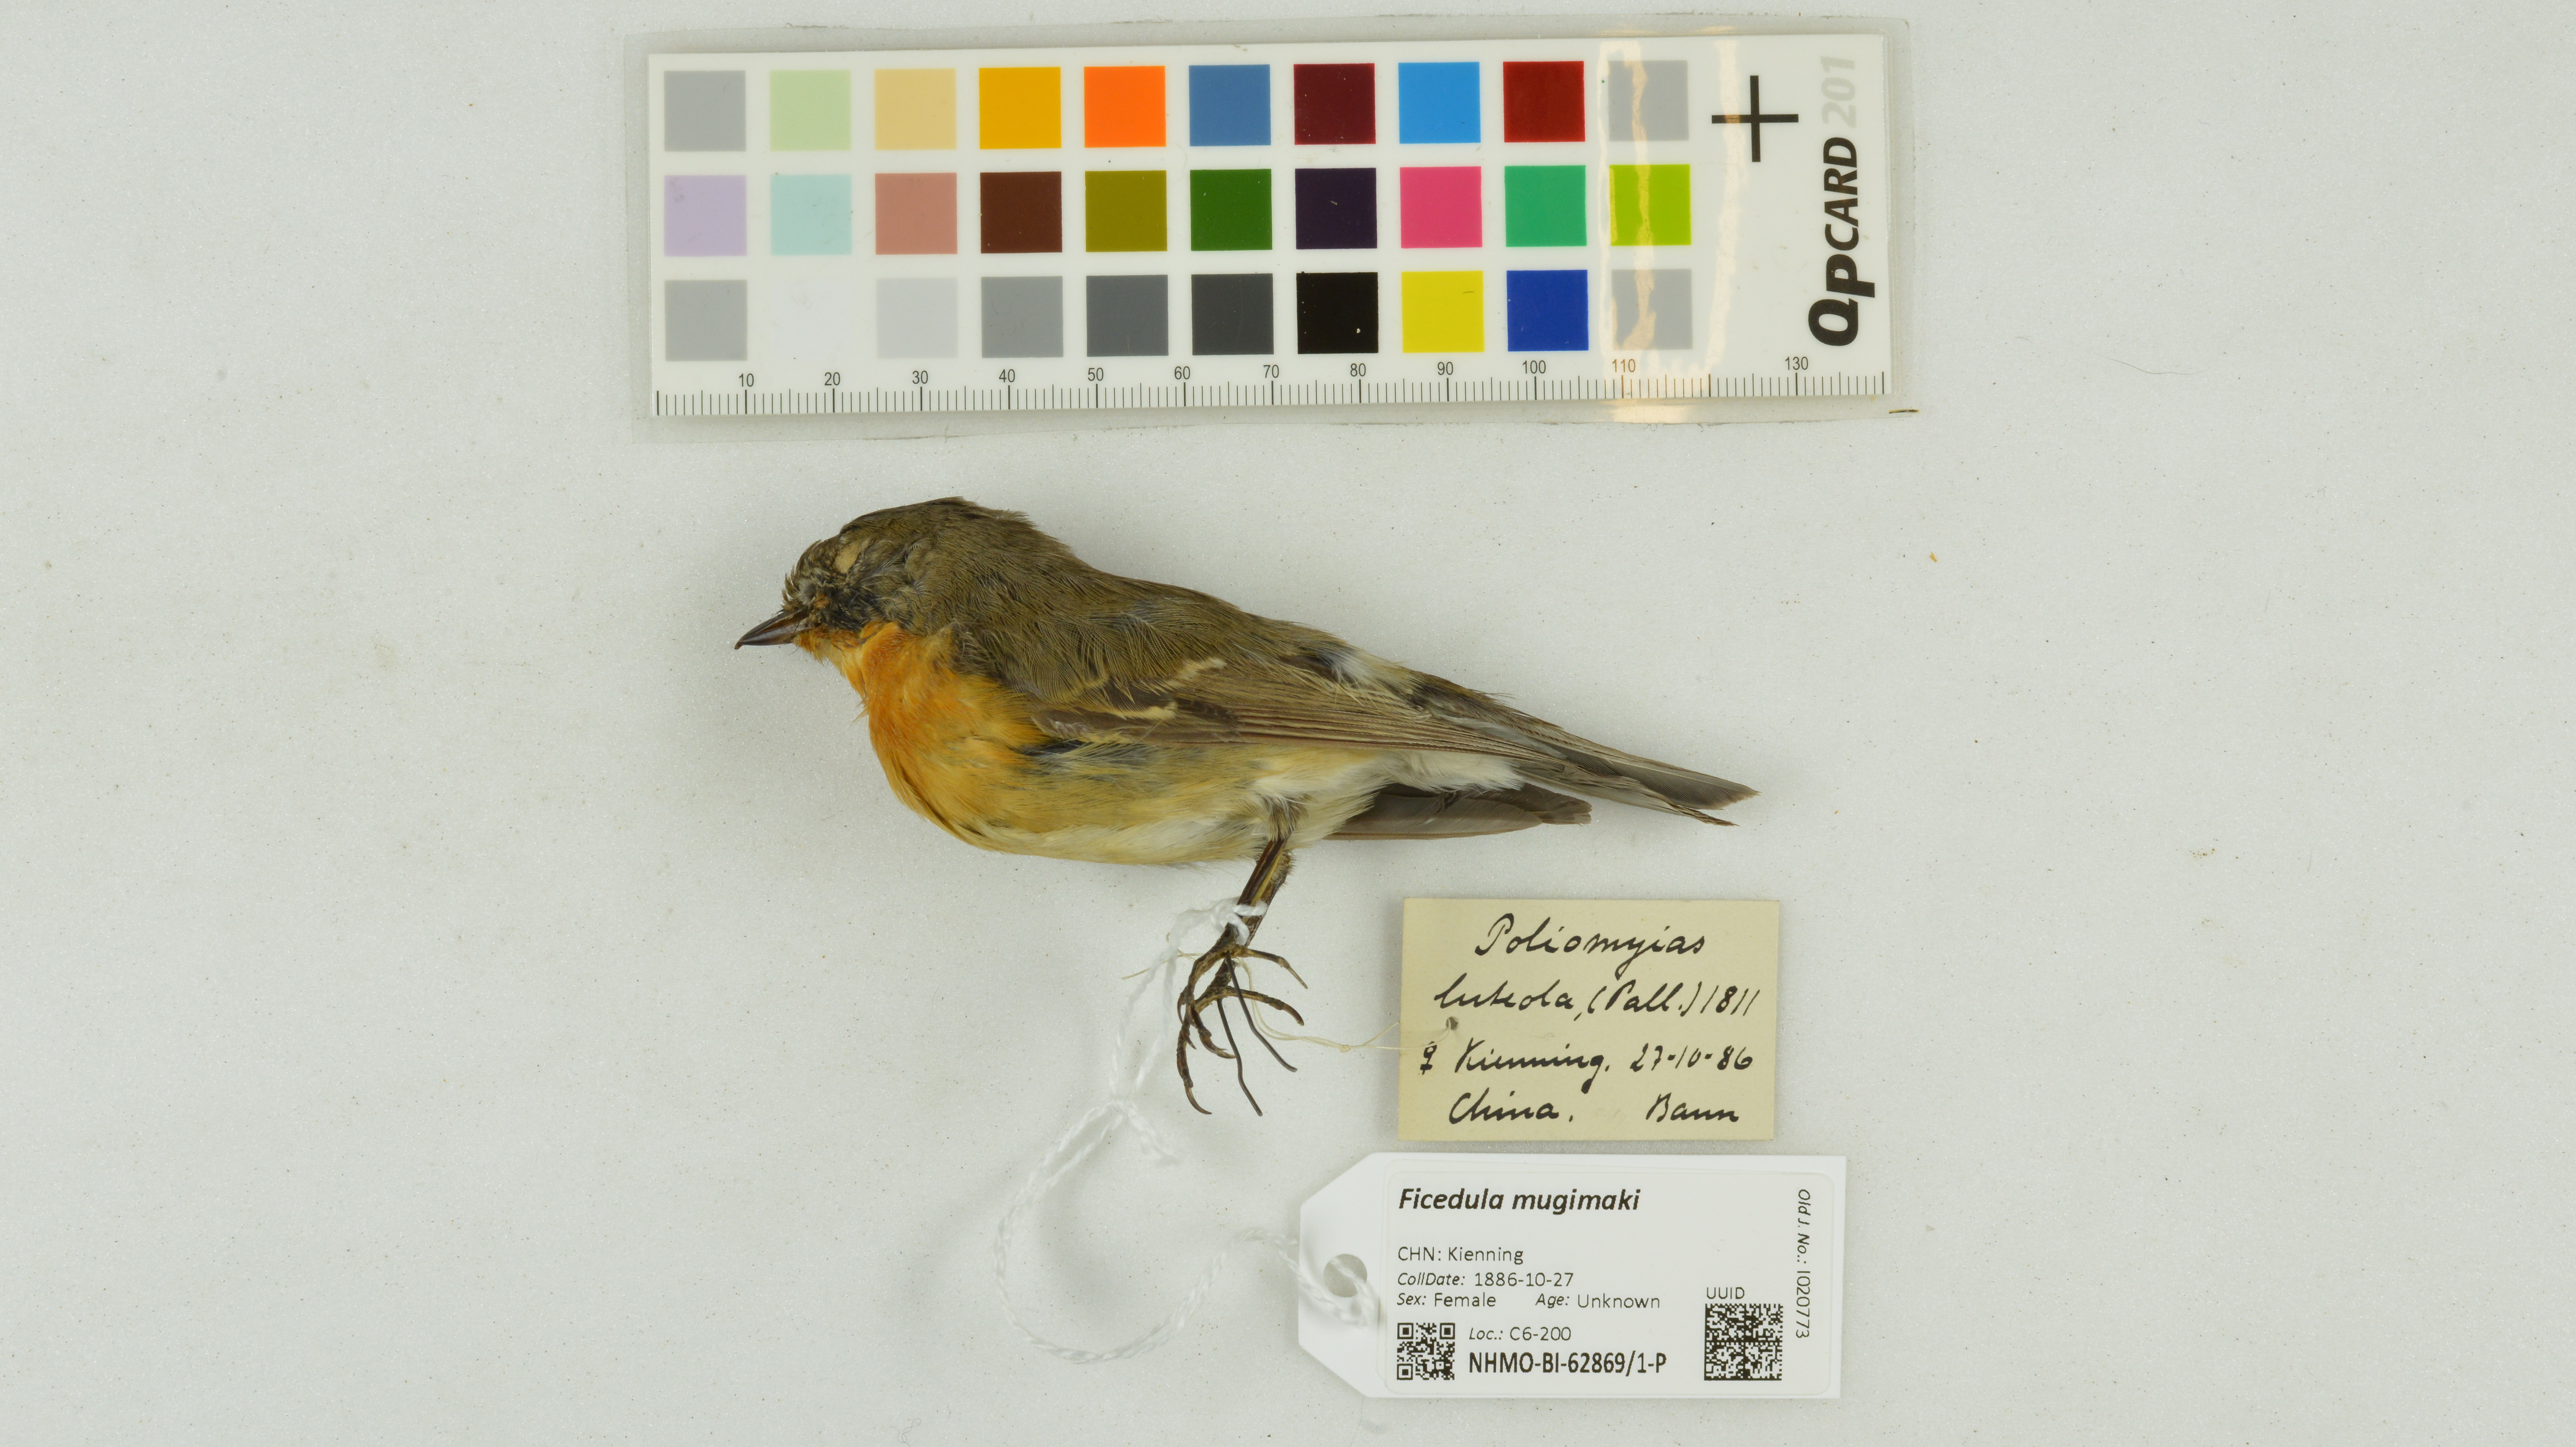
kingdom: Animalia
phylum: Chordata
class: Aves
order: Passeriformes
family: Muscicapidae
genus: Ficedula
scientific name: Ficedula mugimaki
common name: Mugimaki flycatcher
